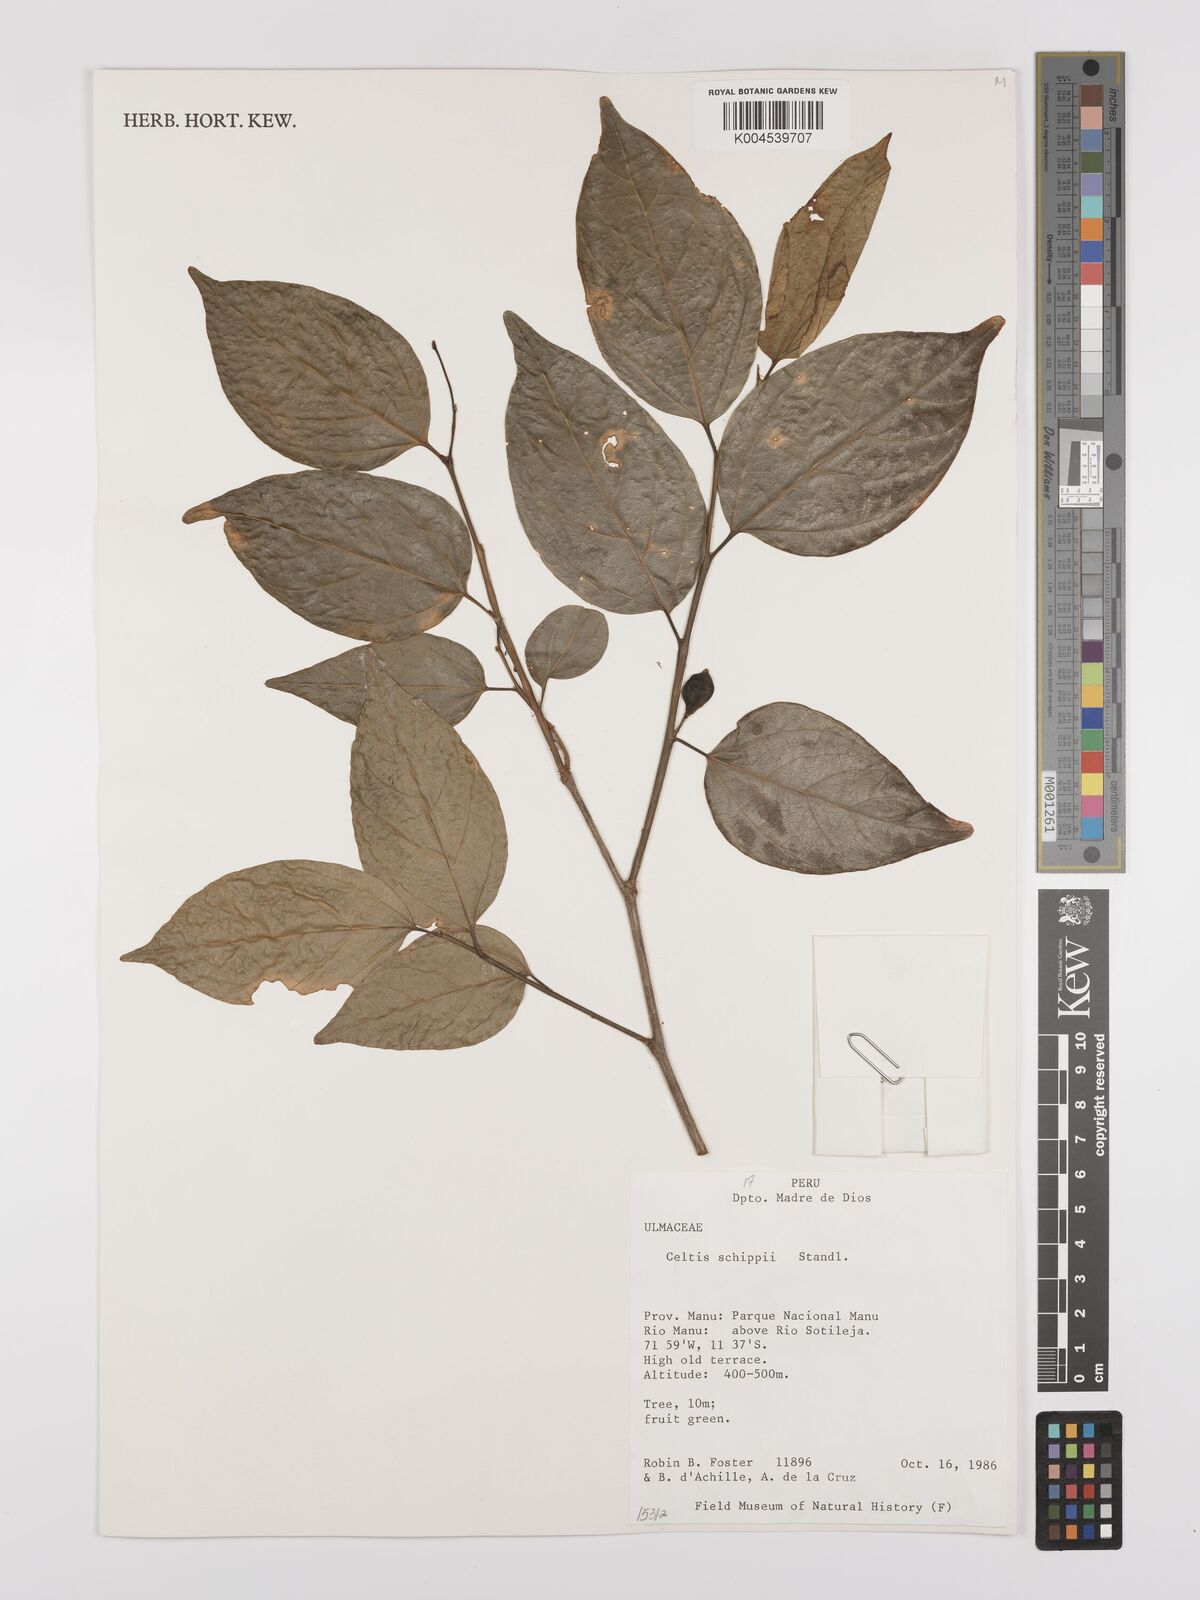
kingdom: Plantae
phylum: Tracheophyta
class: Magnoliopsida
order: Rosales
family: Cannabaceae
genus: Celtis
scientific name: Celtis schippii
